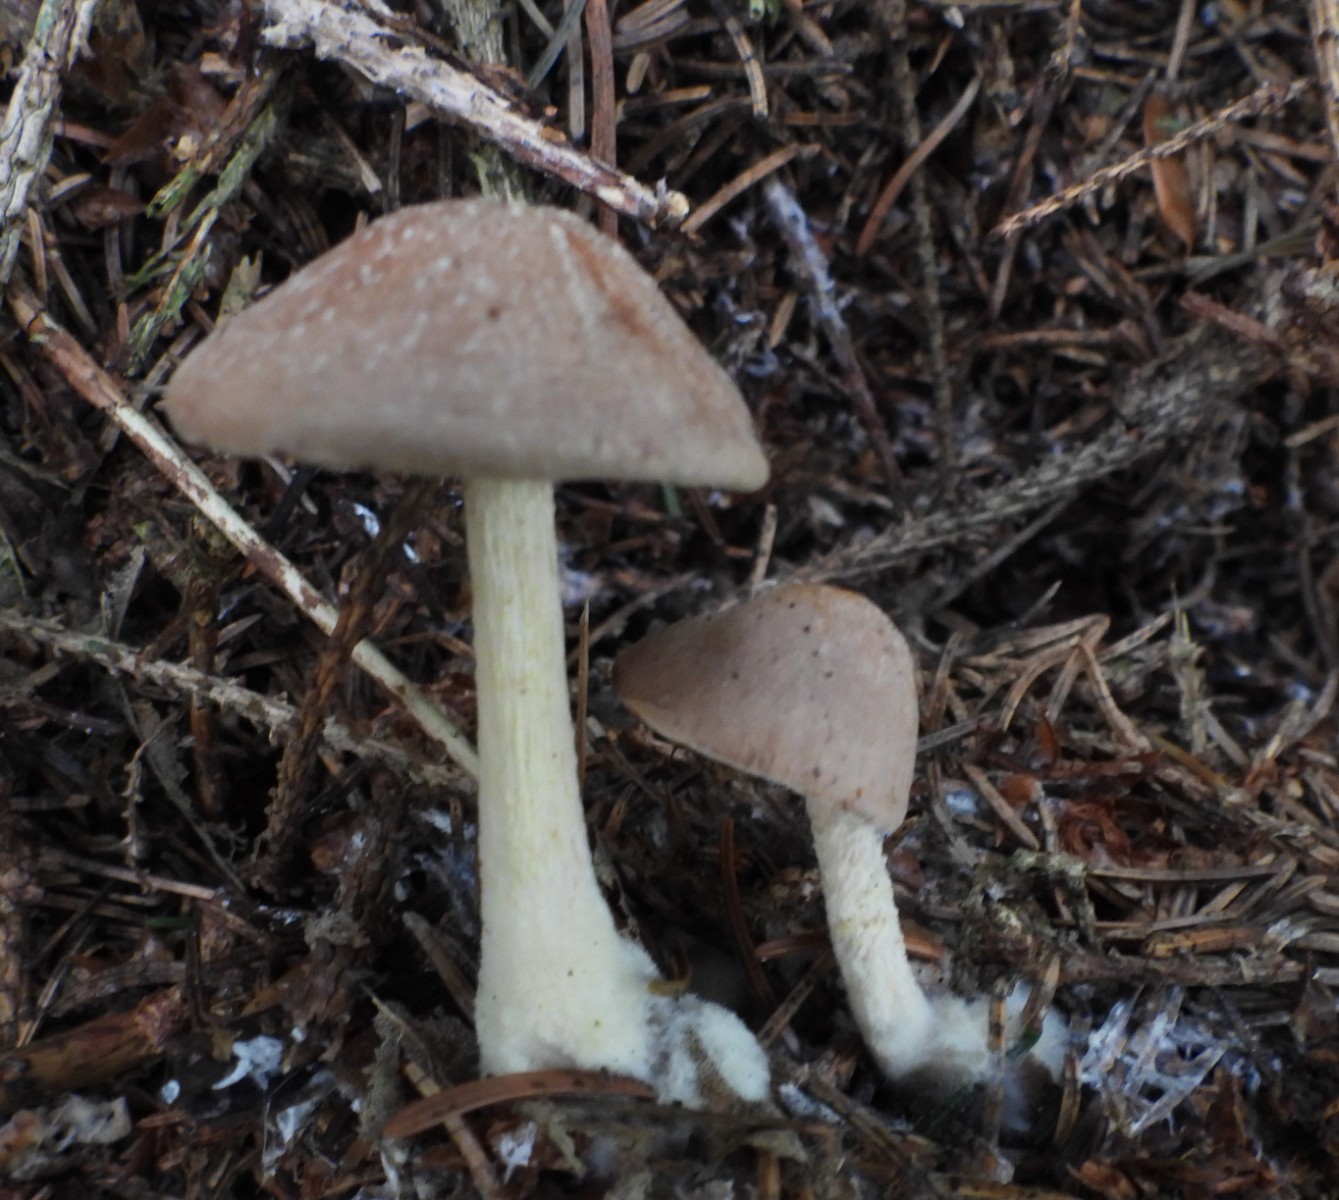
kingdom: Fungi
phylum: Basidiomycota
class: Agaricomycetes
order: Agaricales
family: Omphalotaceae
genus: Collybiopsis
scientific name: Collybiopsis peronata
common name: bestøvlet fladhat
